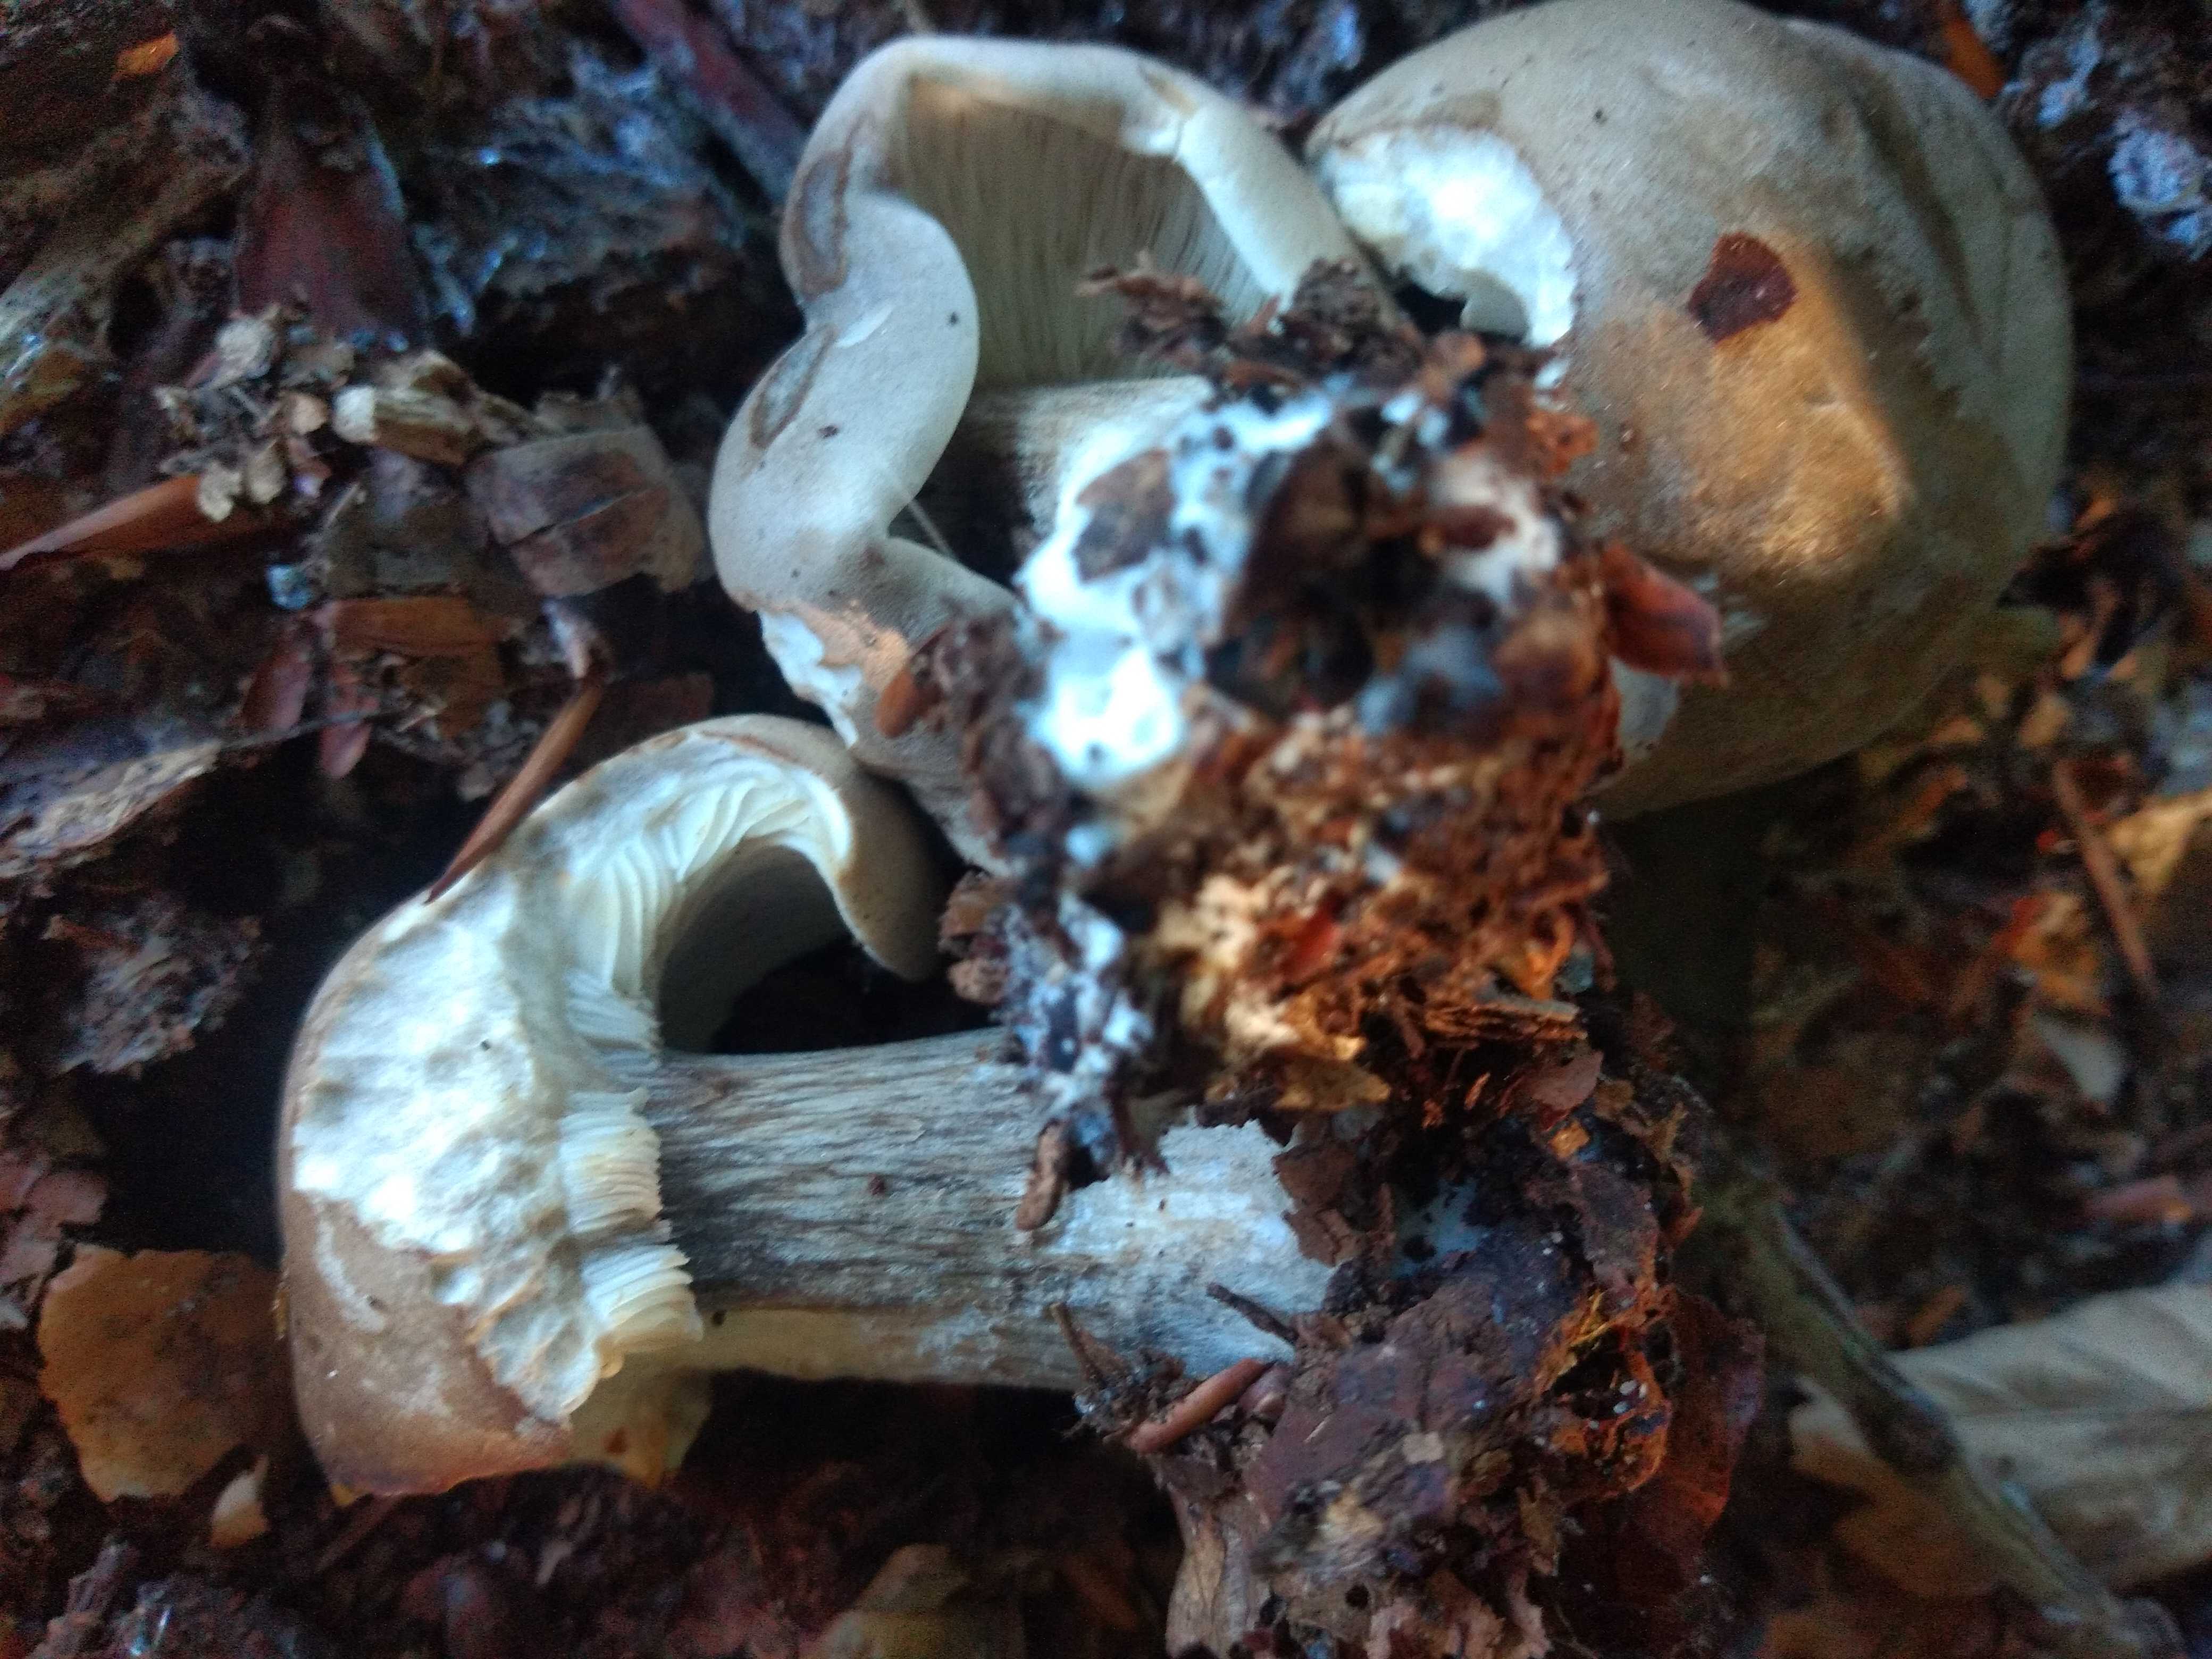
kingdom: Fungi
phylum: Basidiomycota
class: Agaricomycetes
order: Agaricales
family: Tricholomataceae
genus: Melanoleuca
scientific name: Melanoleuca grammopodia
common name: stribestokket munkehat
